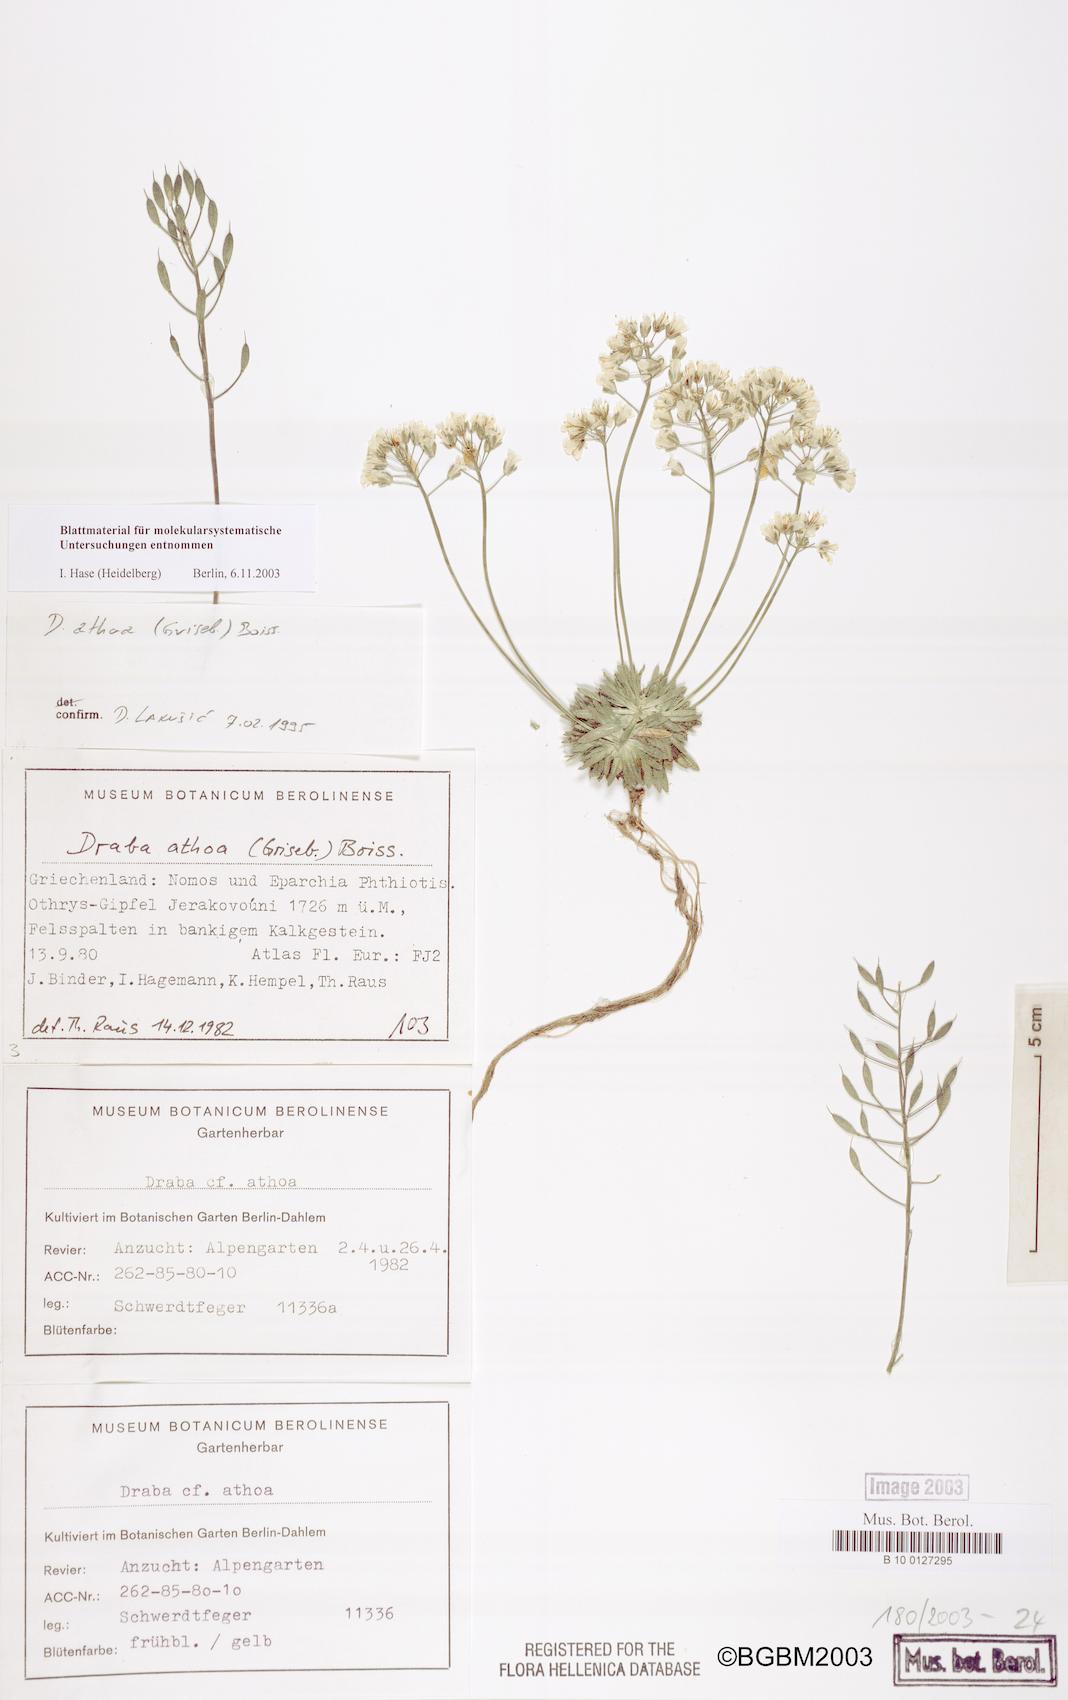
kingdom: Plantae
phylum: Tracheophyta
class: Magnoliopsida
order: Brassicales
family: Brassicaceae
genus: Draba
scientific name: Draba lasiocarpa
